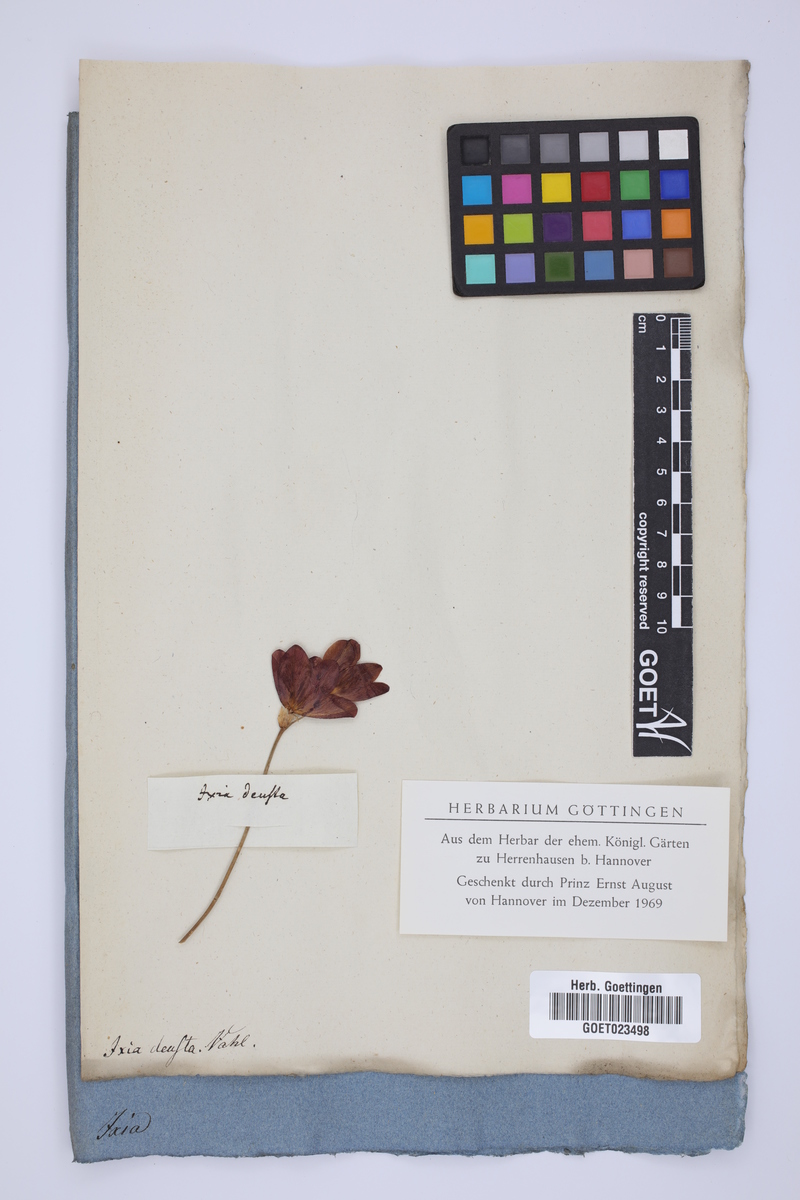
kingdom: Plantae
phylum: Tracheophyta
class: Liliopsida
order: Asparagales
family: Iridaceae
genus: Tritonia
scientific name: Tritonia deusta
